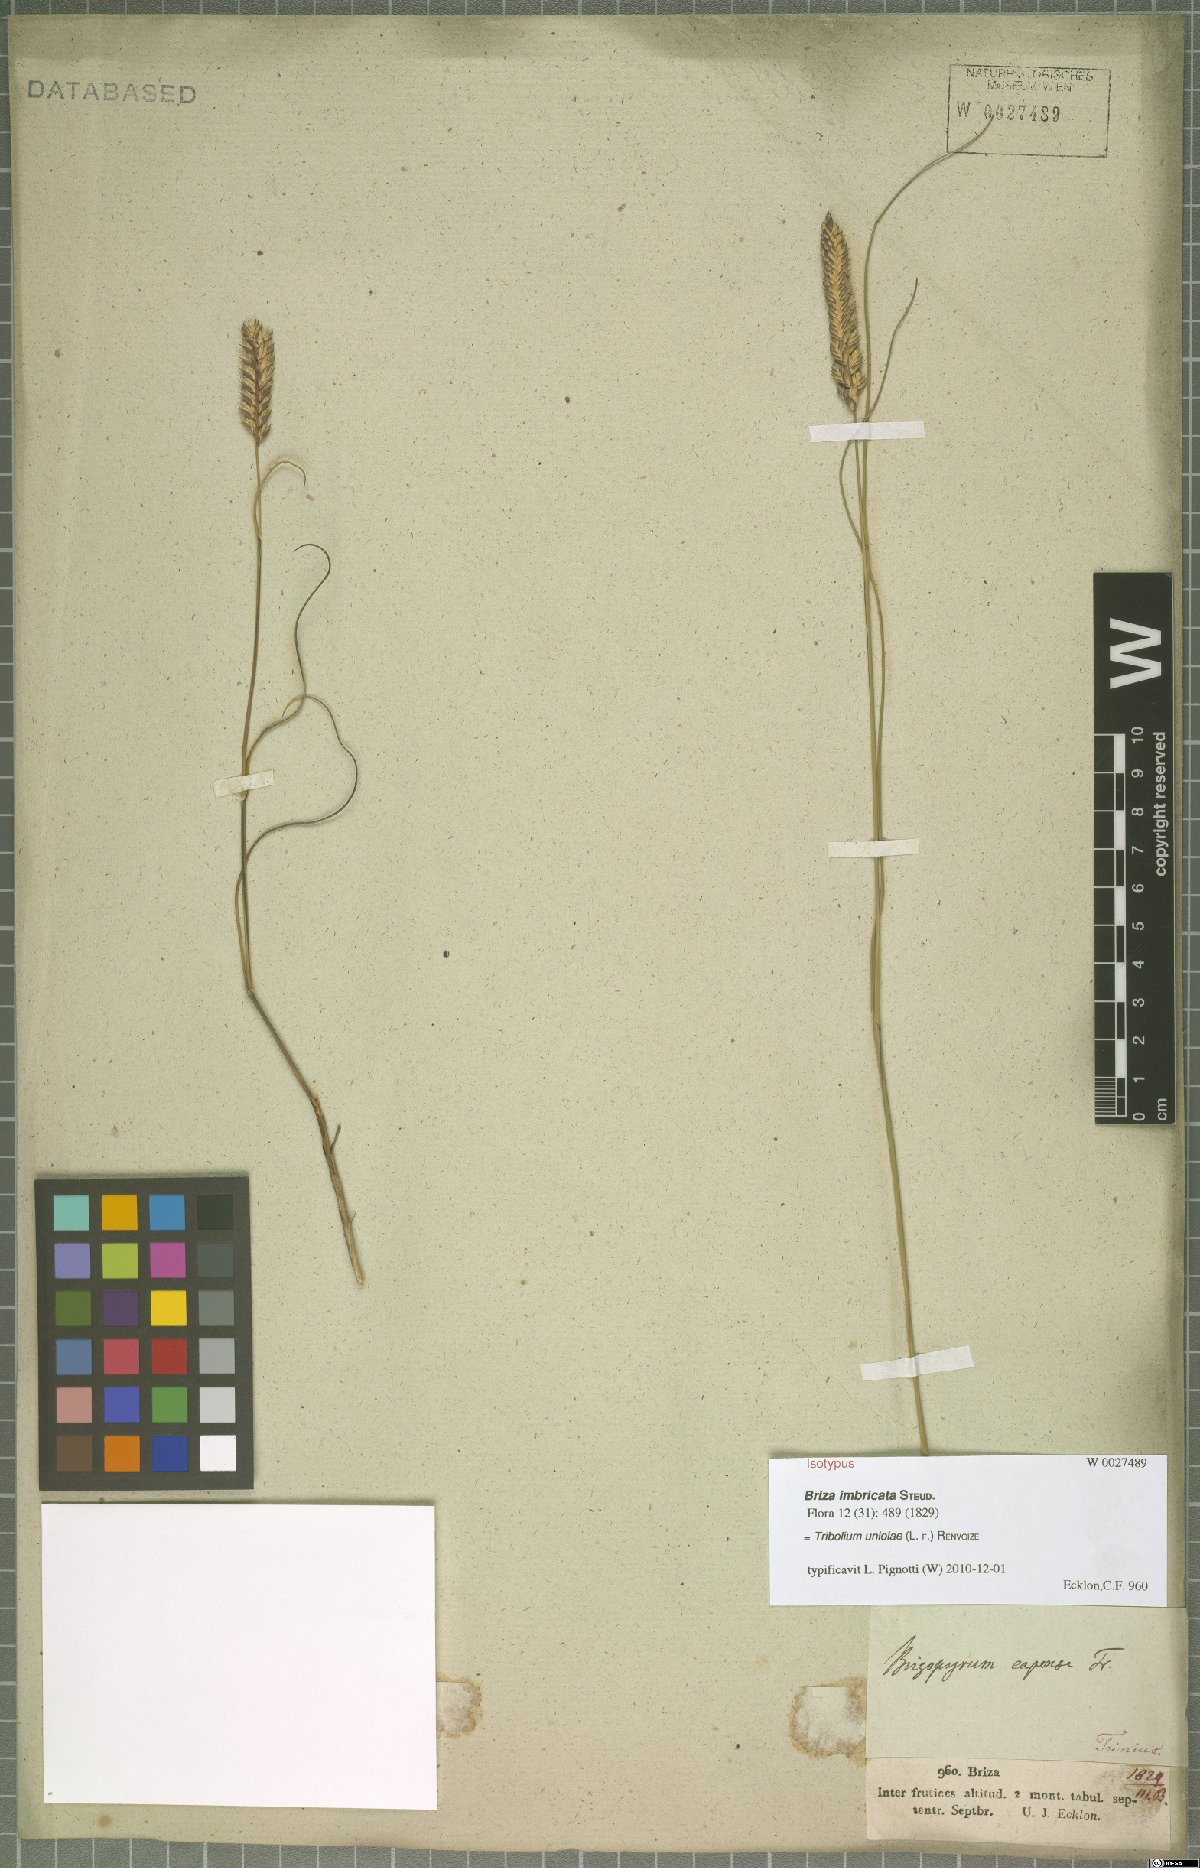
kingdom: Plantae
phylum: Tracheophyta
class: Liliopsida
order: Poales
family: Poaceae
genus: Tribolium
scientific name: Tribolium uniolae
